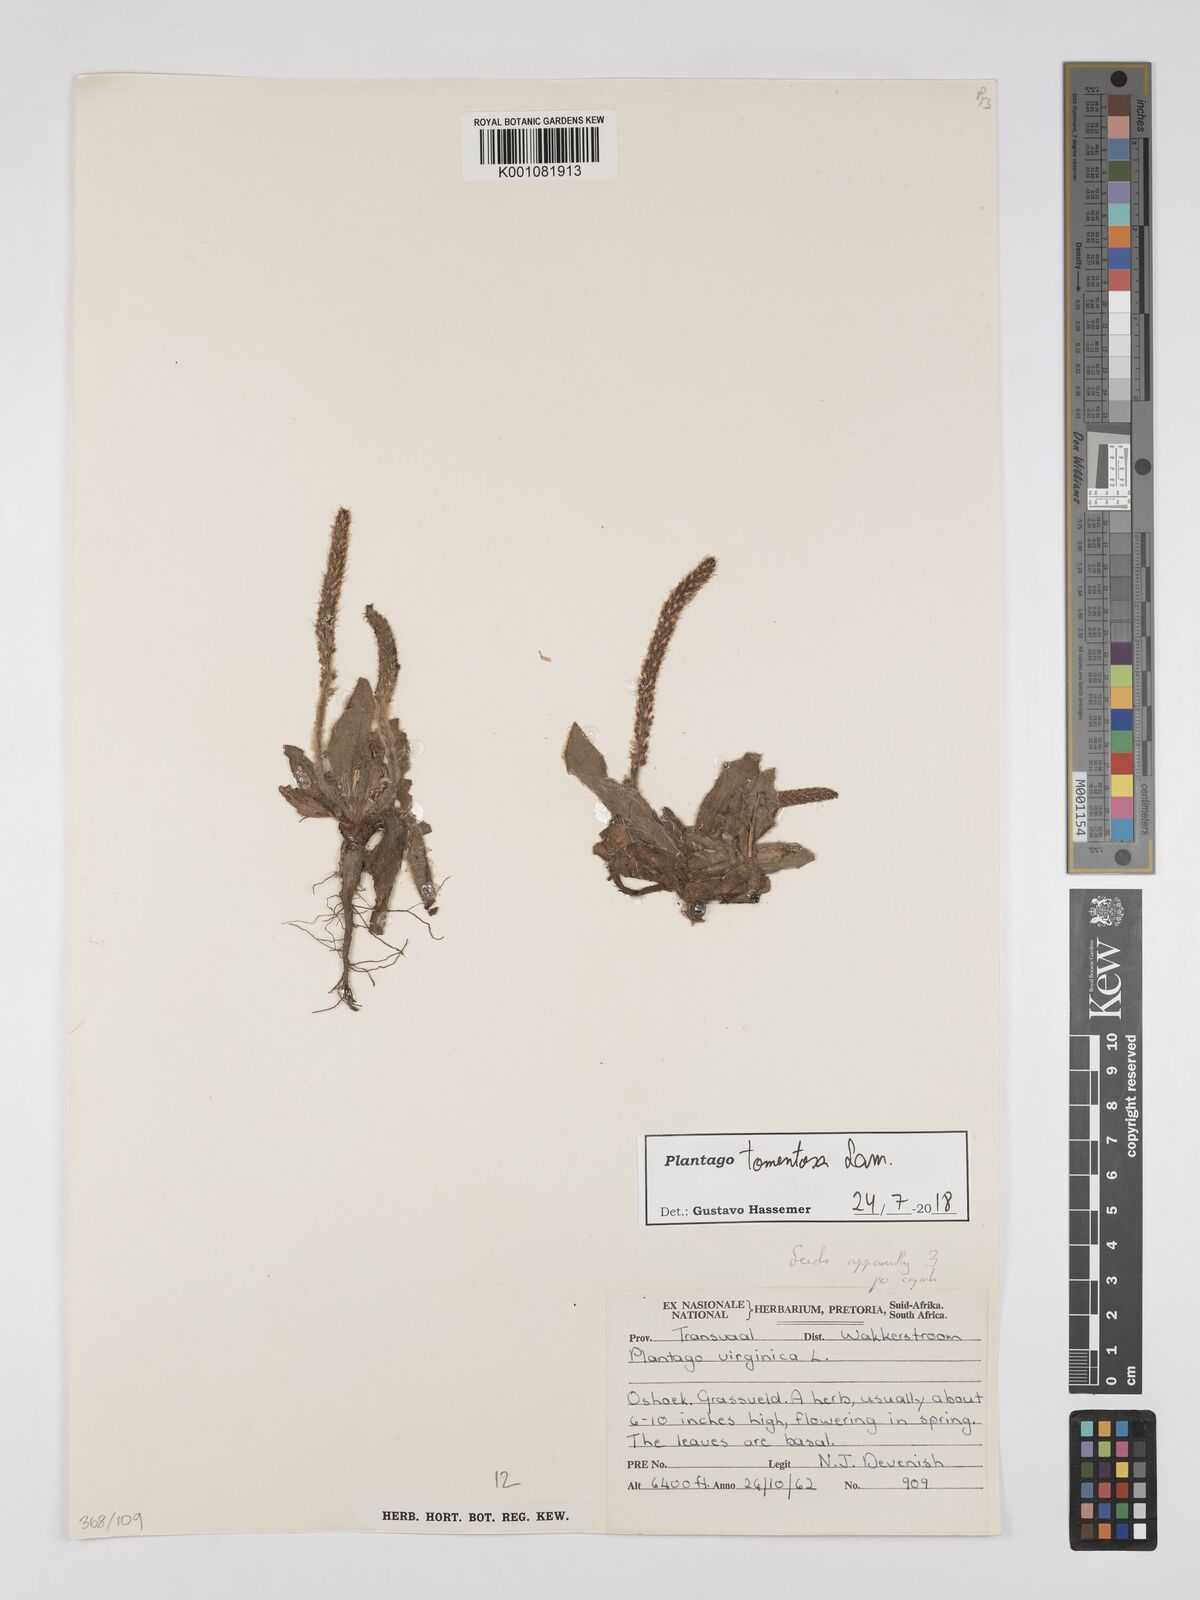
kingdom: Plantae
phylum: Tracheophyta
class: Magnoliopsida
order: Lamiales
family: Plantaginaceae
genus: Plantago
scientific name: Plantago tomentosa
